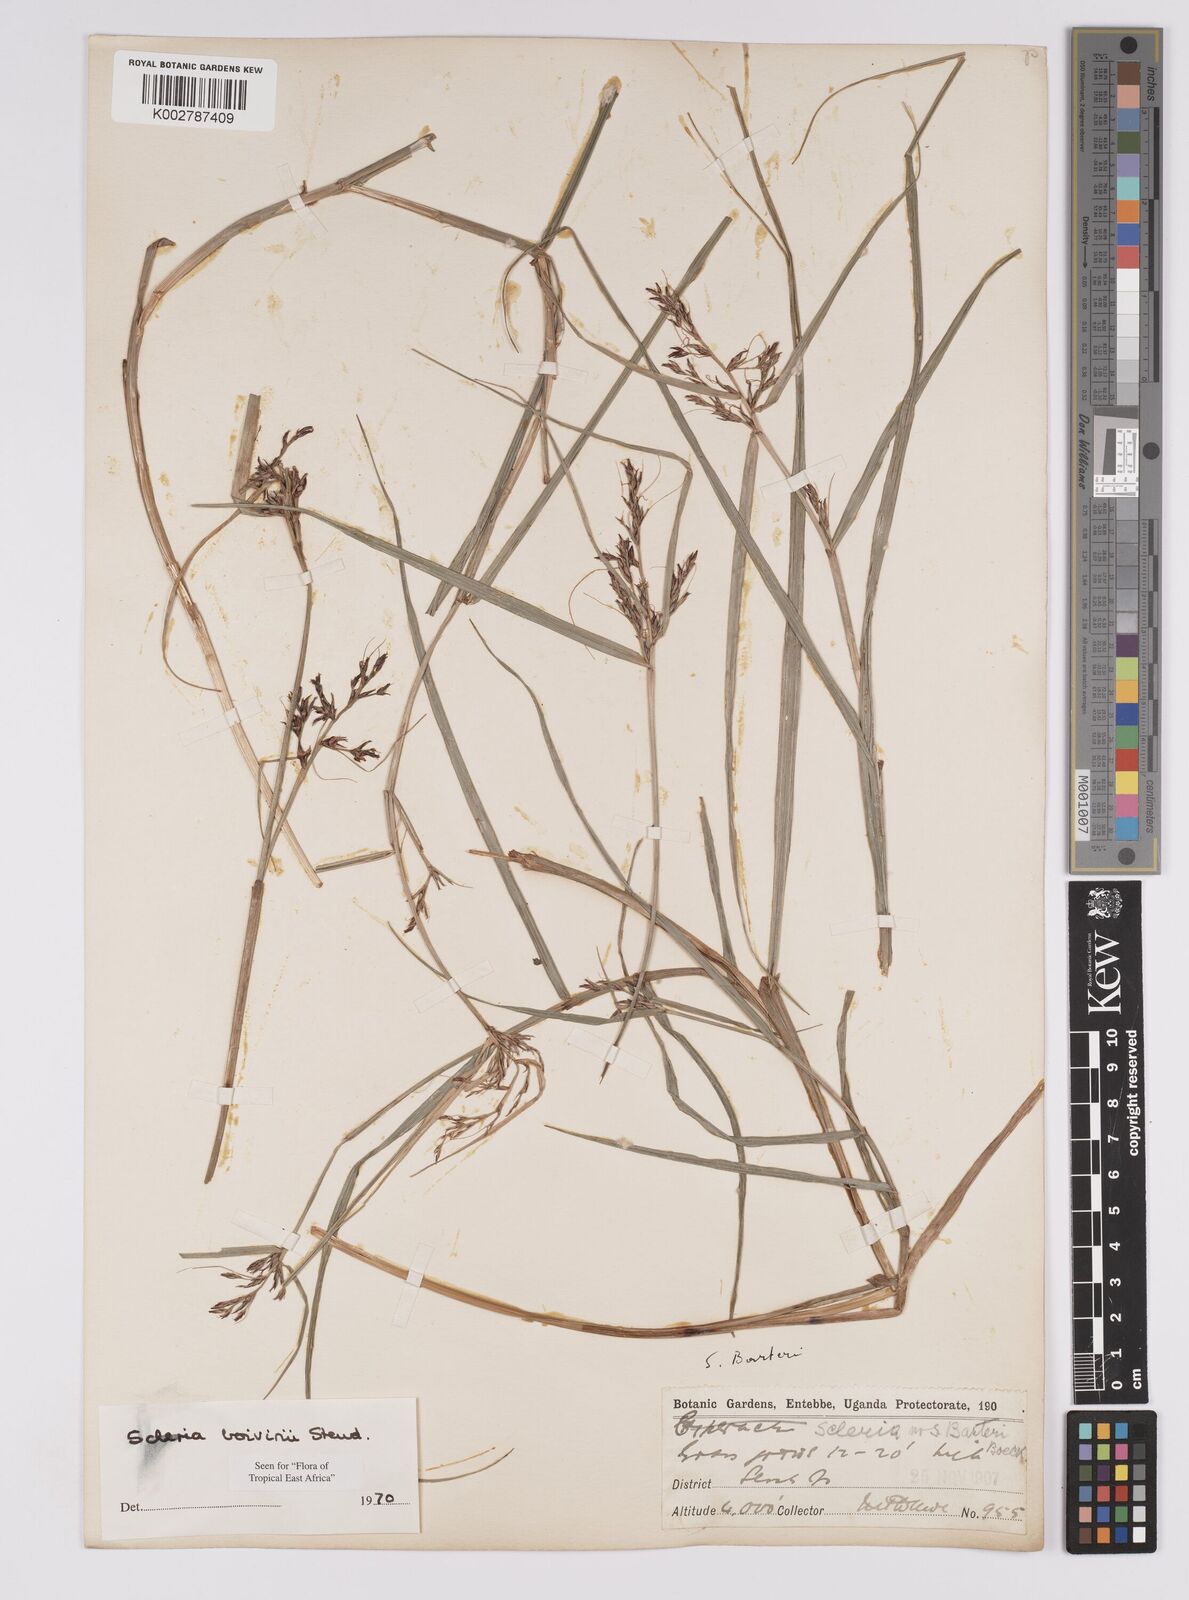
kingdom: Plantae
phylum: Tracheophyta
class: Liliopsida
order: Poales
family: Cyperaceae
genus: Scleria
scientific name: Scleria boivinii
